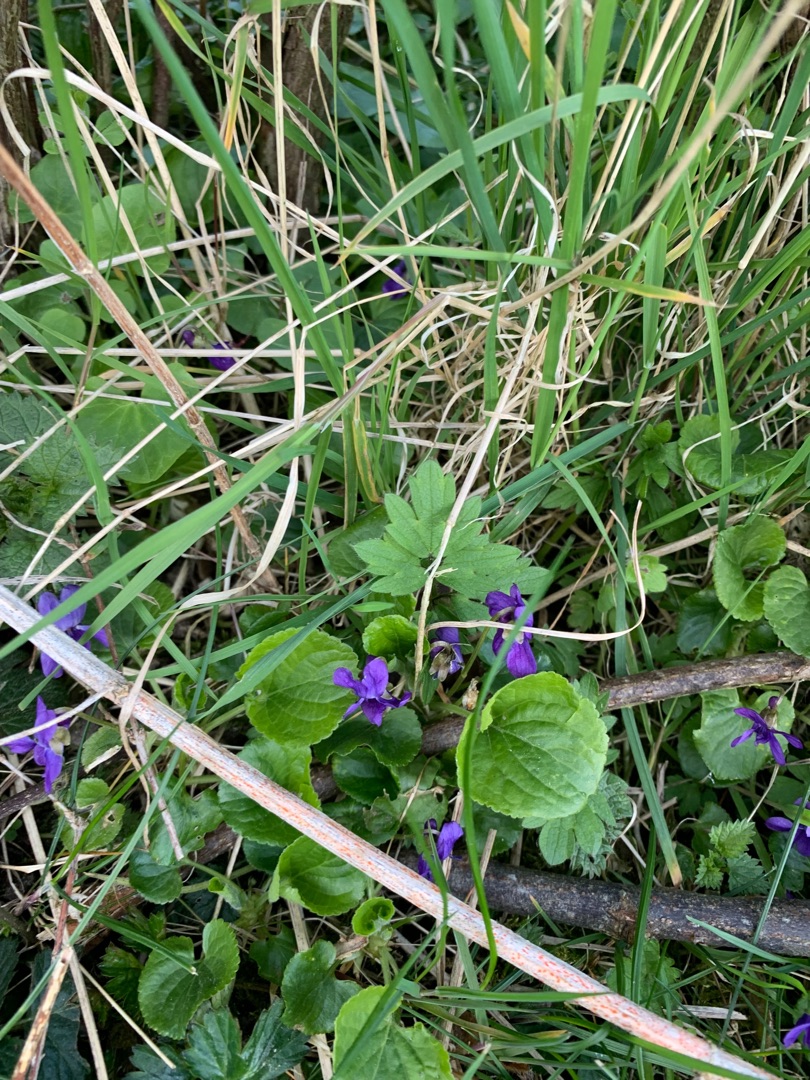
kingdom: Plantae
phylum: Tracheophyta
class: Magnoliopsida
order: Malpighiales
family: Violaceae
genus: Viola
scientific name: Viola odorata
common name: Marts-viol
